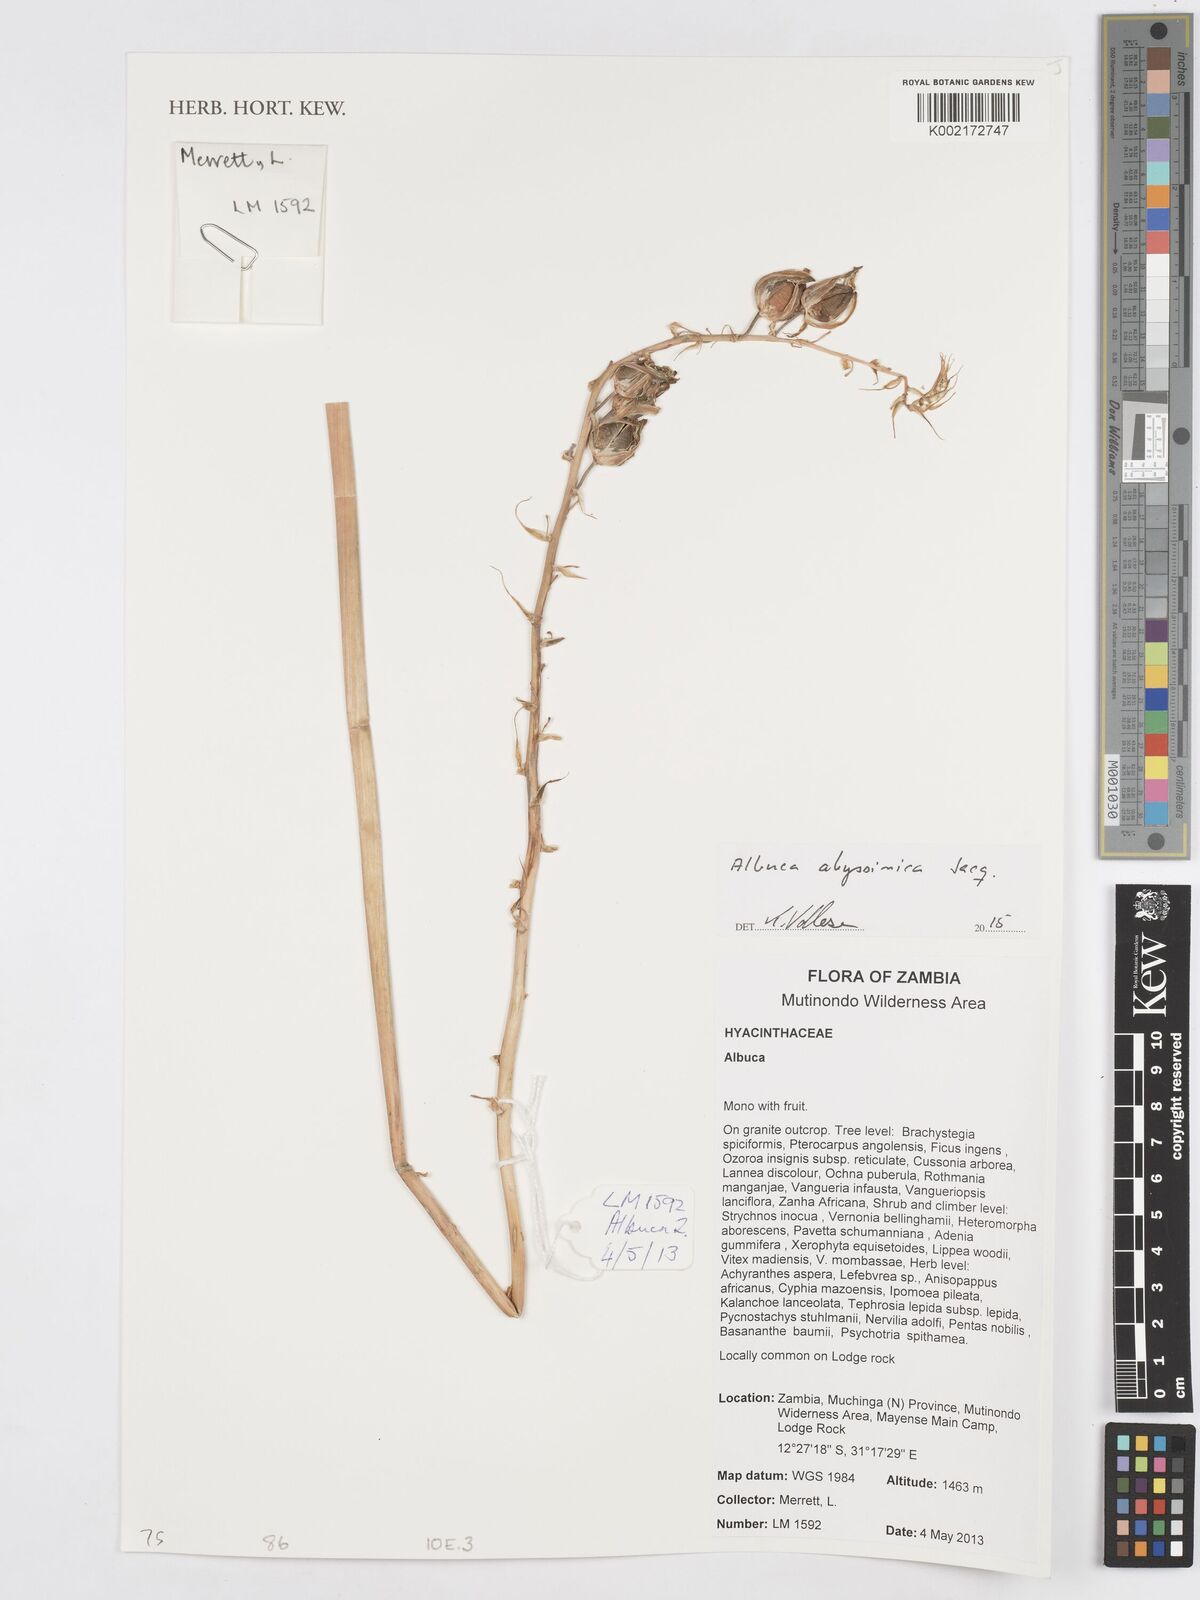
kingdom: Plantae
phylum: Tracheophyta
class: Liliopsida
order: Asparagales
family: Asparagaceae
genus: Albuca
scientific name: Albuca abyssinica
